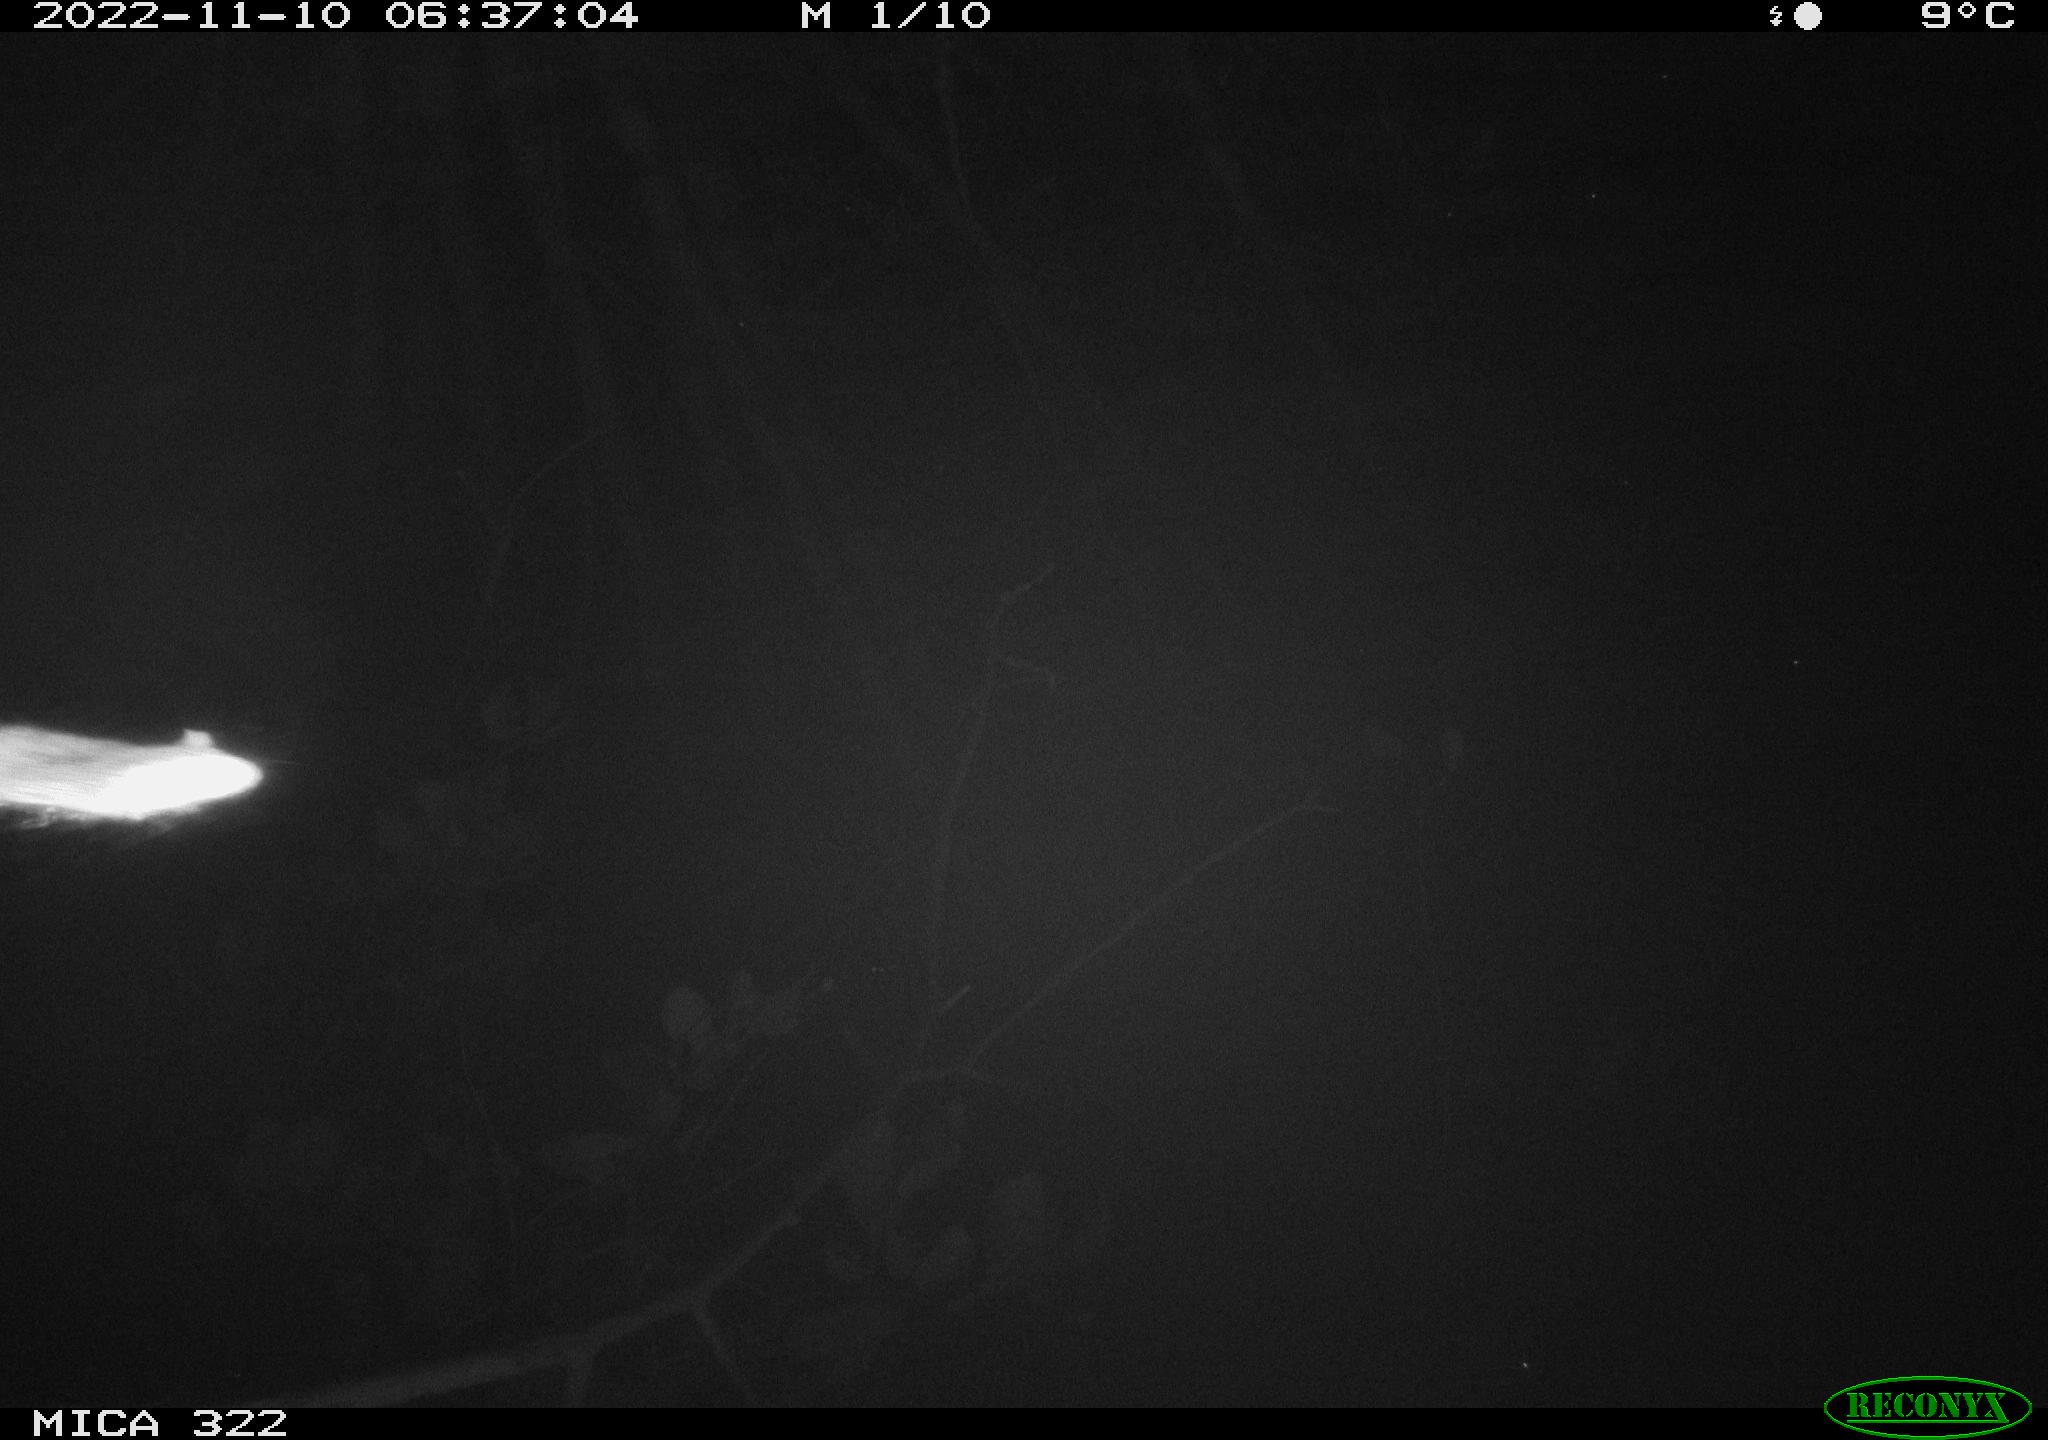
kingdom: Animalia
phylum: Chordata
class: Mammalia
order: Rodentia
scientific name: Rodentia
